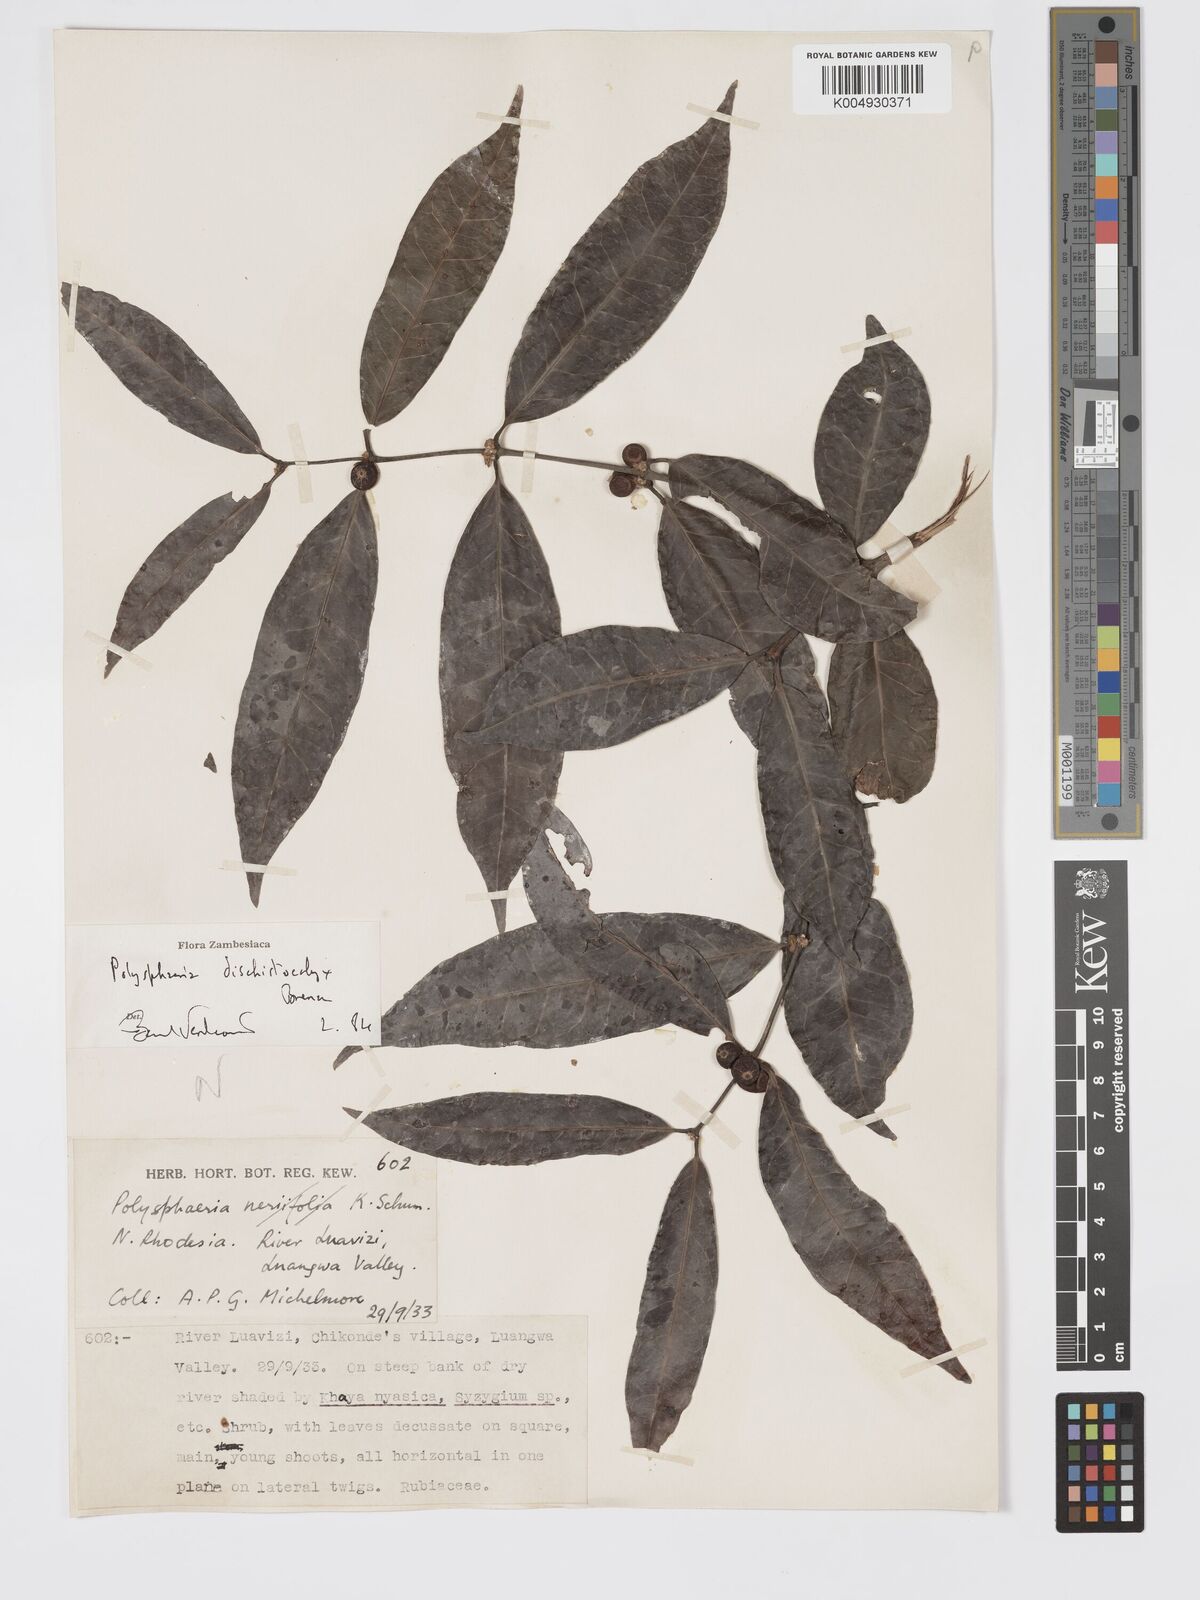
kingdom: Plantae
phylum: Tracheophyta
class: Magnoliopsida
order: Gentianales
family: Rubiaceae
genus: Polysphaeria
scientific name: Polysphaeria dischistocalyx
